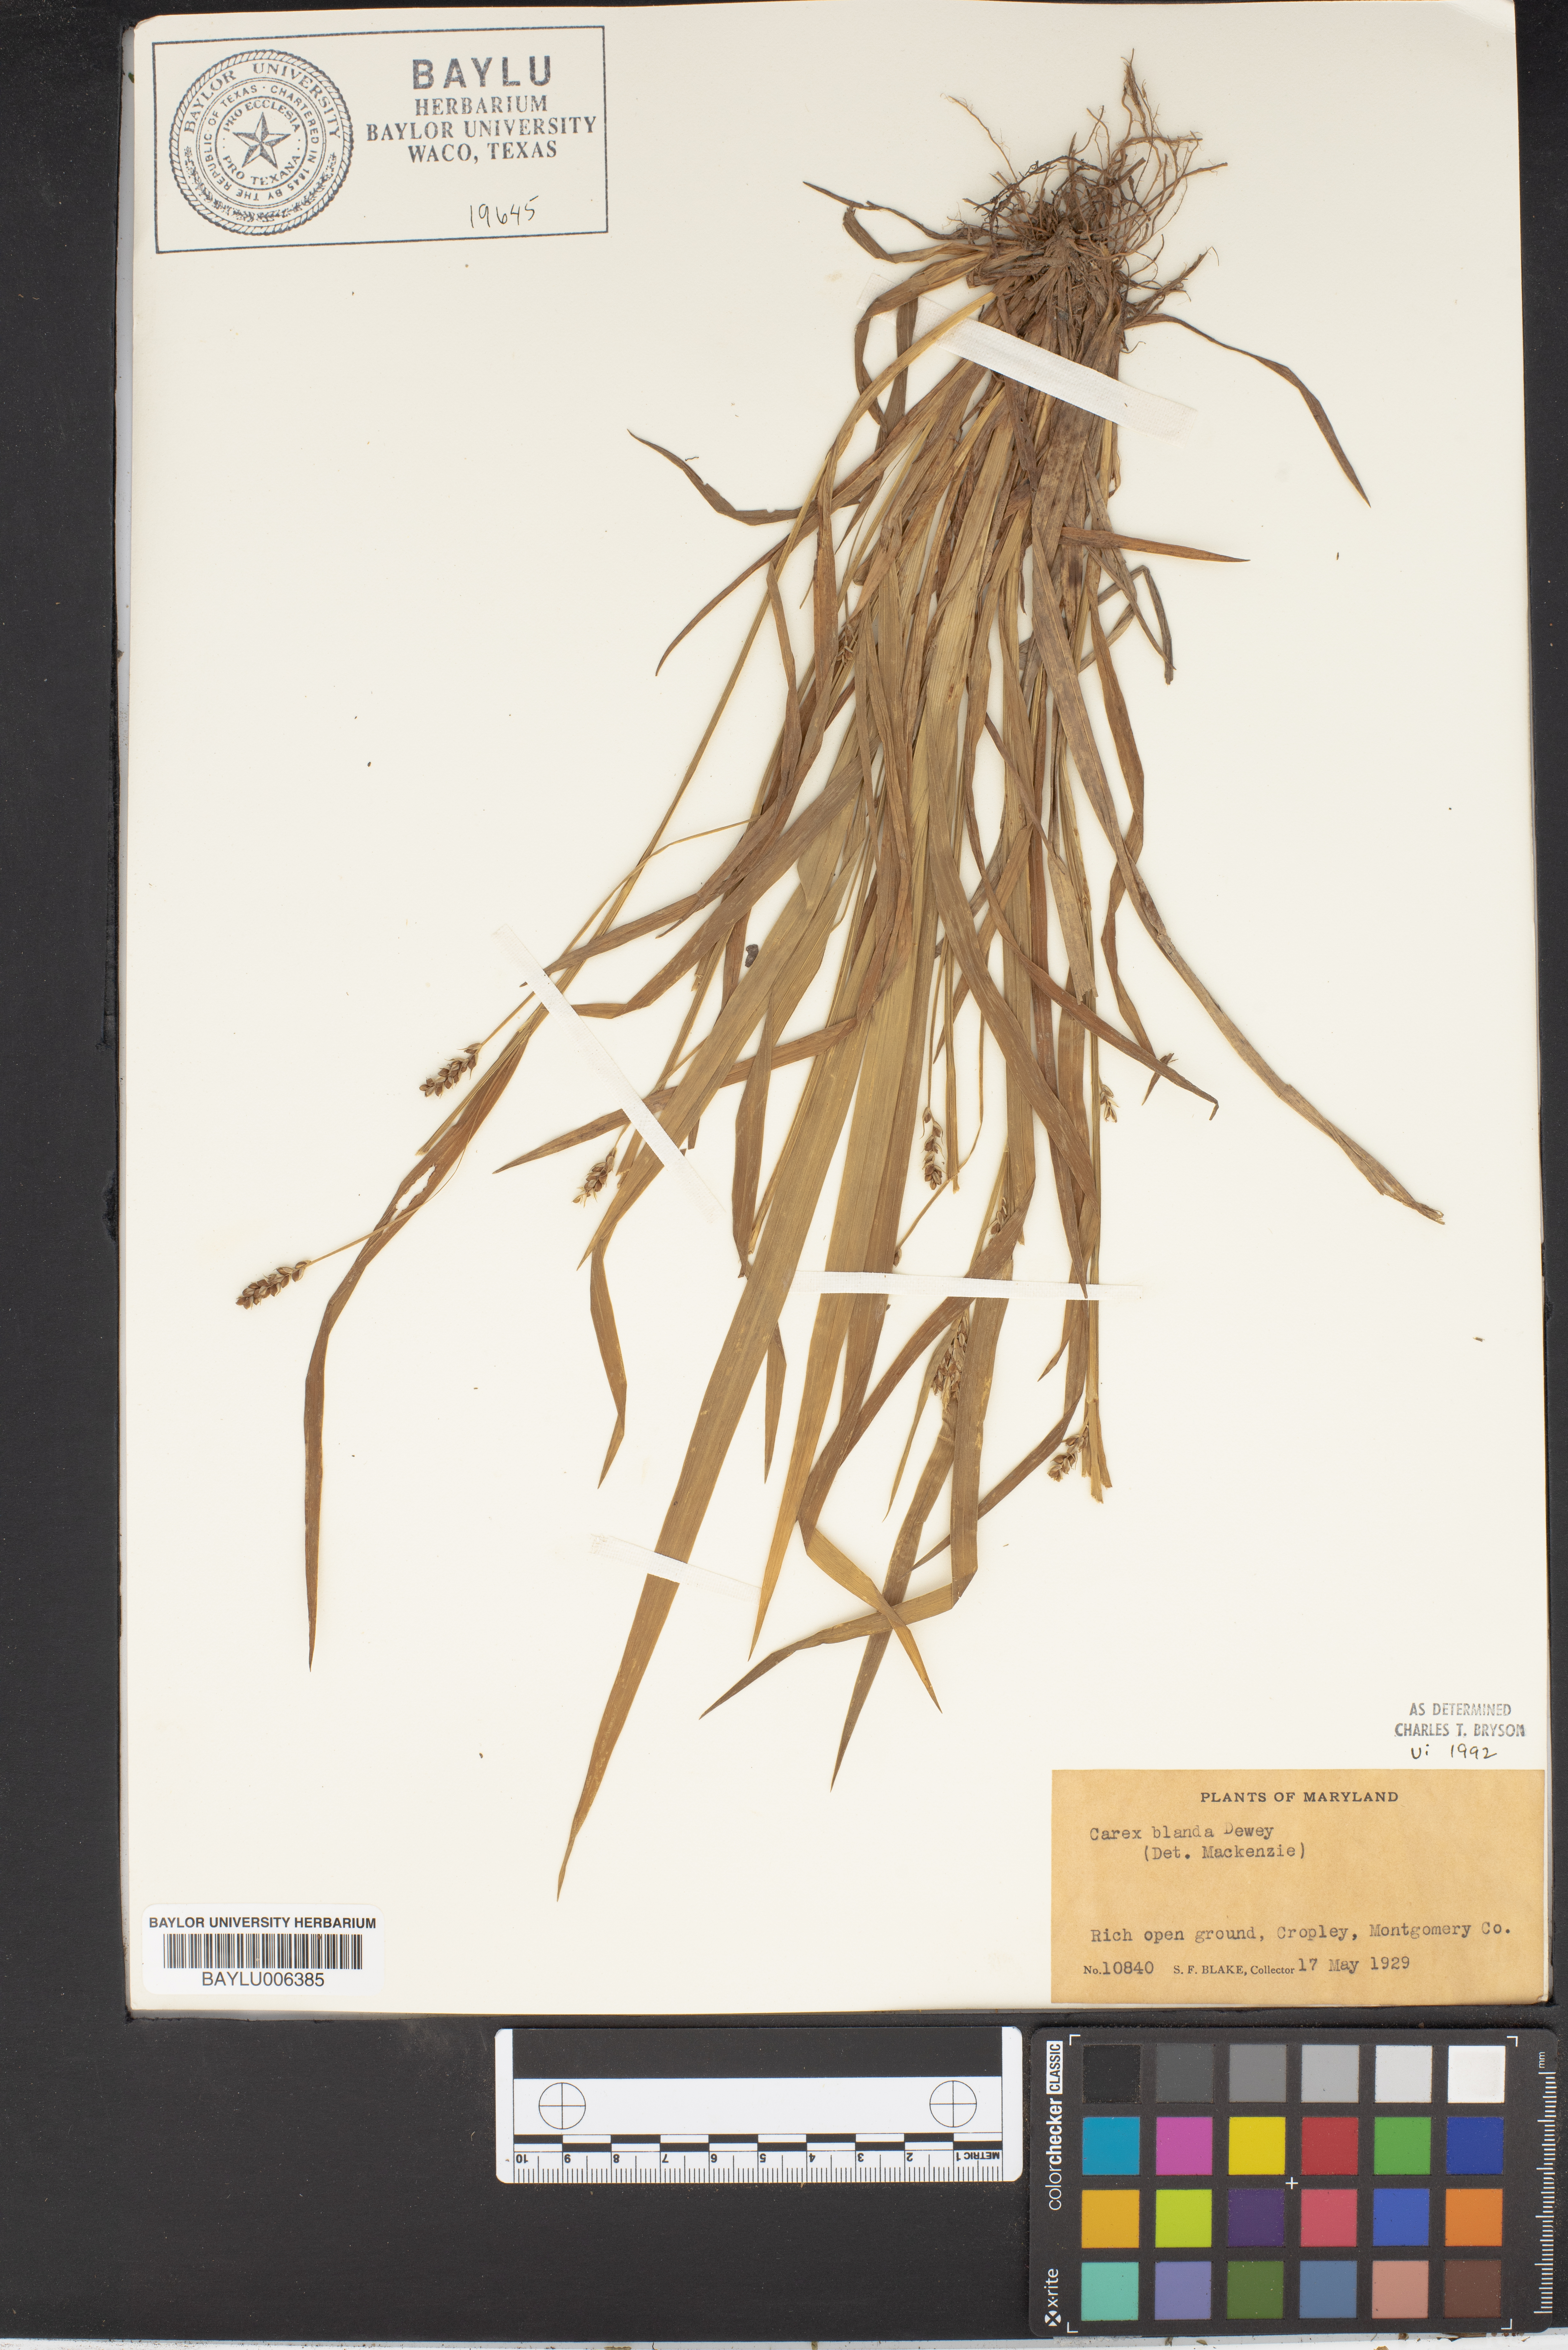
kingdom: Plantae
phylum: Tracheophyta
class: Liliopsida
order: Poales
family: Cyperaceae
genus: Carex
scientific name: Carex blanda
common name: Bland sedge
